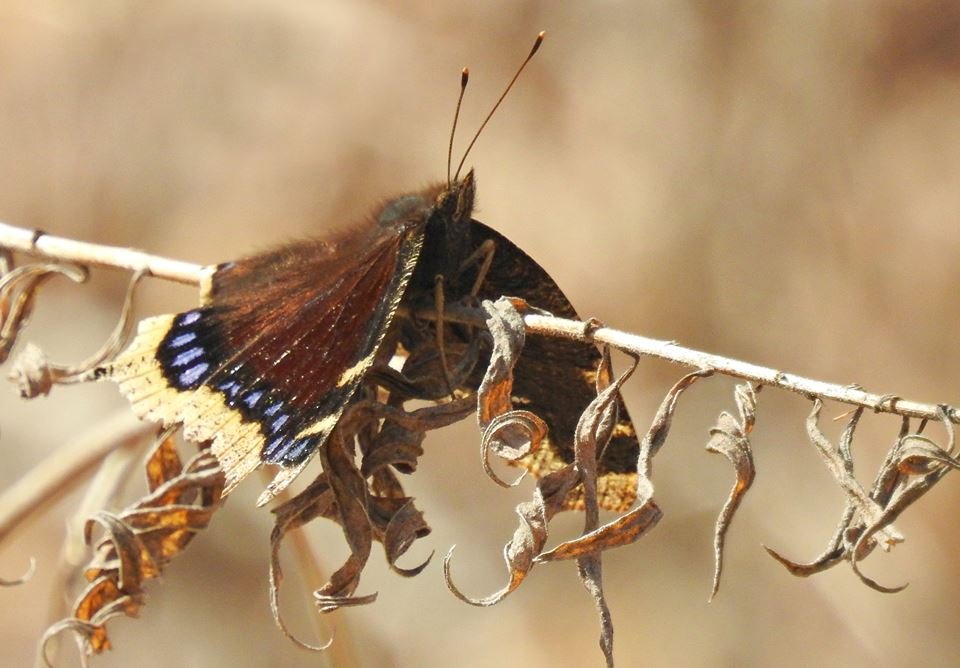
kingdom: Animalia
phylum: Arthropoda
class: Insecta
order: Lepidoptera
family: Nymphalidae
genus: Nymphalis
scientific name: Nymphalis antiopa
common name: Mourning Cloak
